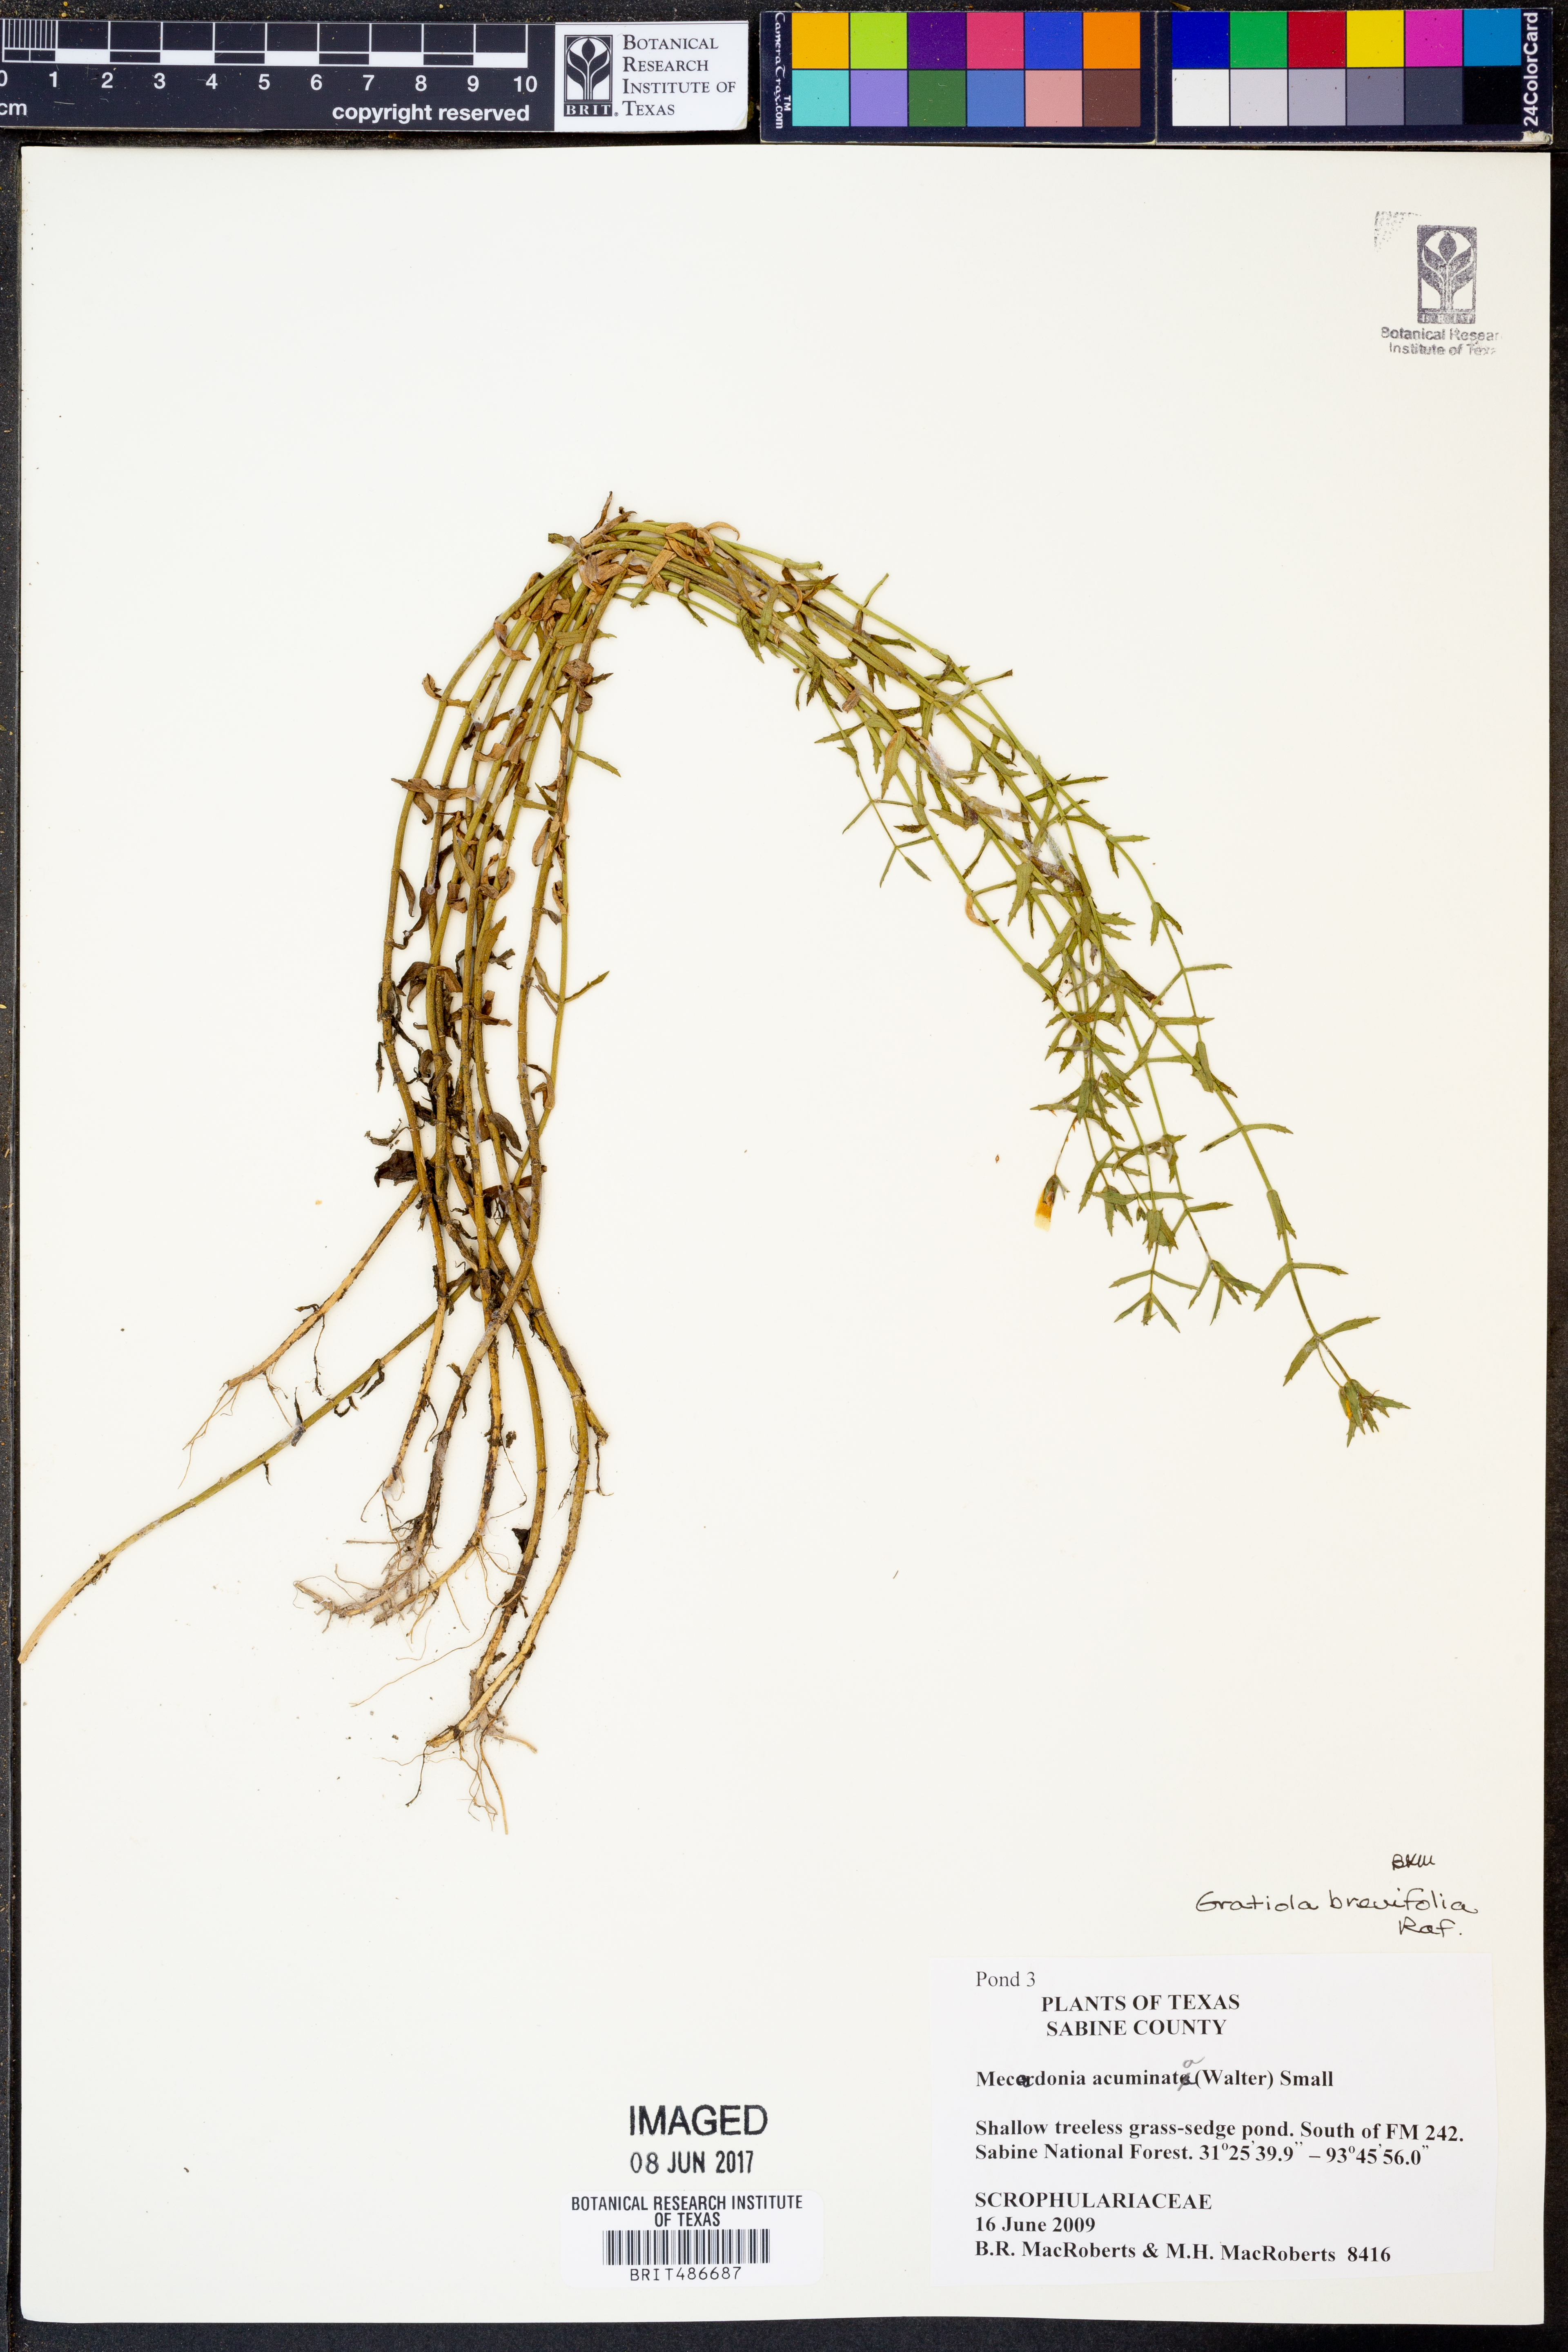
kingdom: Plantae
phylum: Tracheophyta
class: Magnoliopsida
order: Lamiales
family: Plantaginaceae
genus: Mecardonia
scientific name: Mecardonia acuminata
